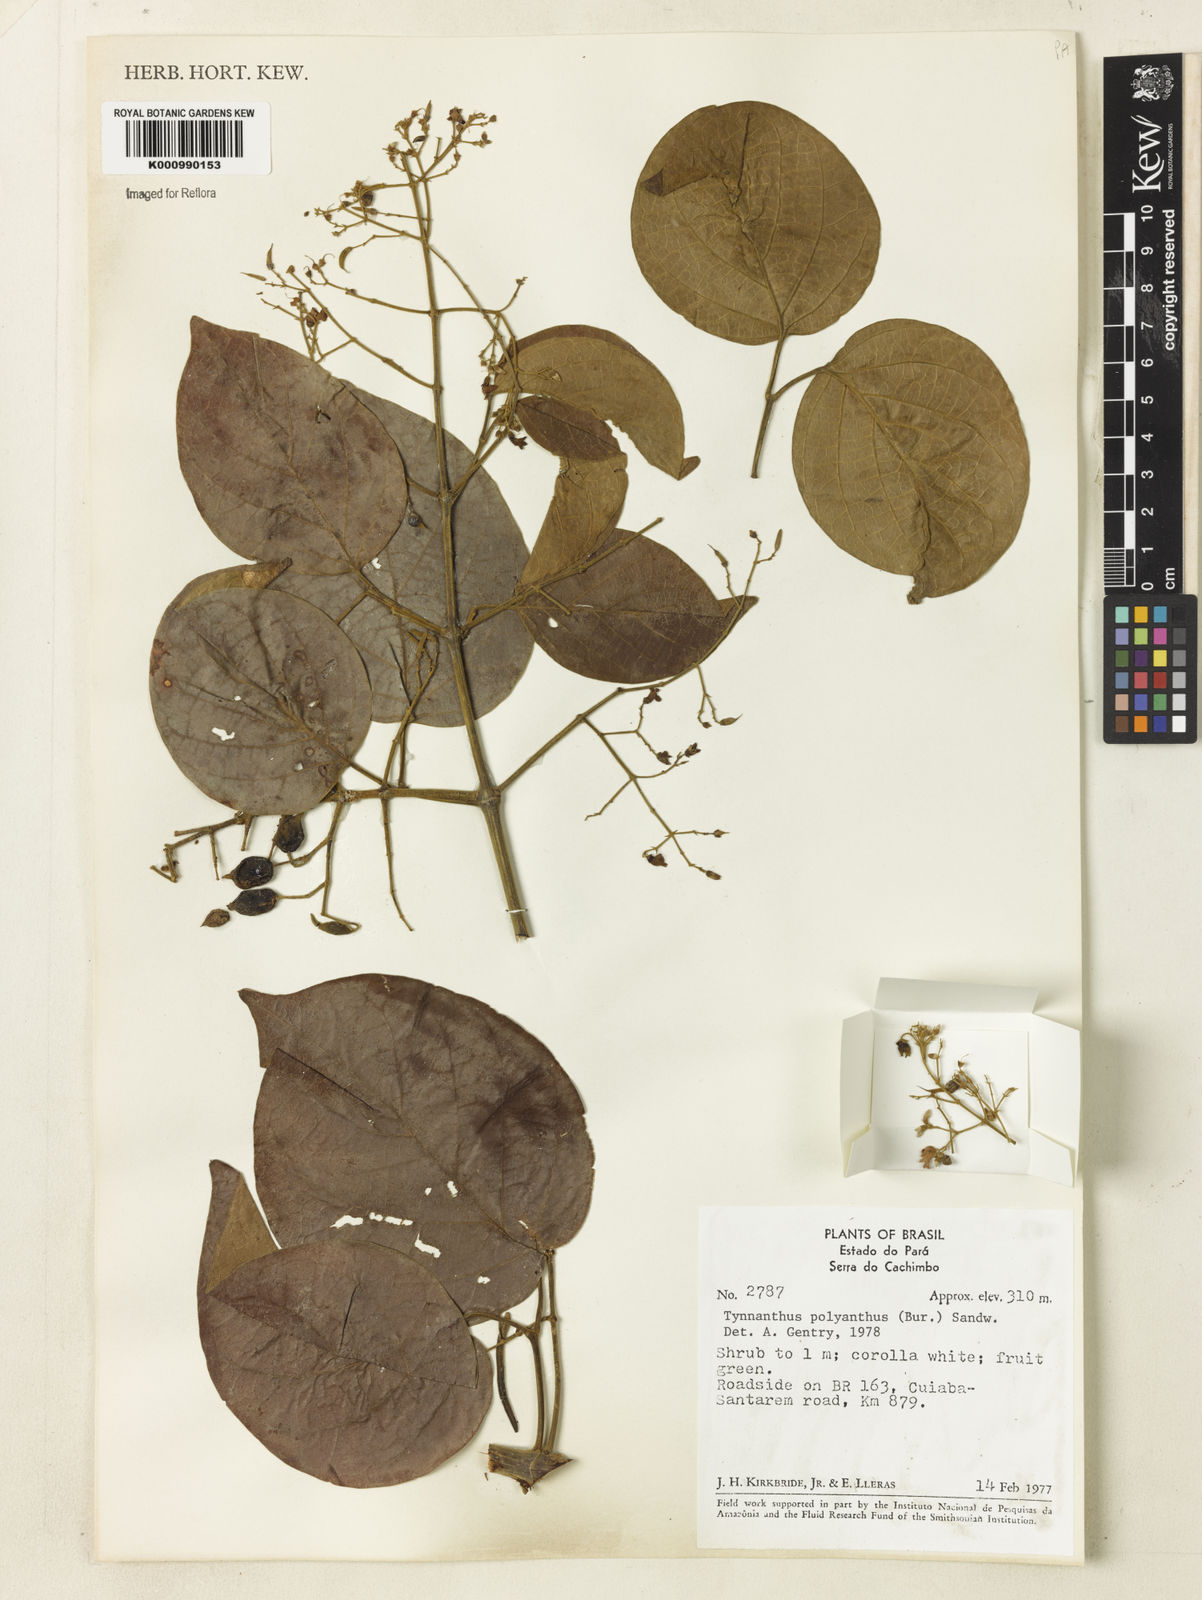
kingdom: Plantae
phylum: Tracheophyta
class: Magnoliopsida
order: Lamiales
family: Bignoniaceae
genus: Tynanthus
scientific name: Tynanthus polyanthus
